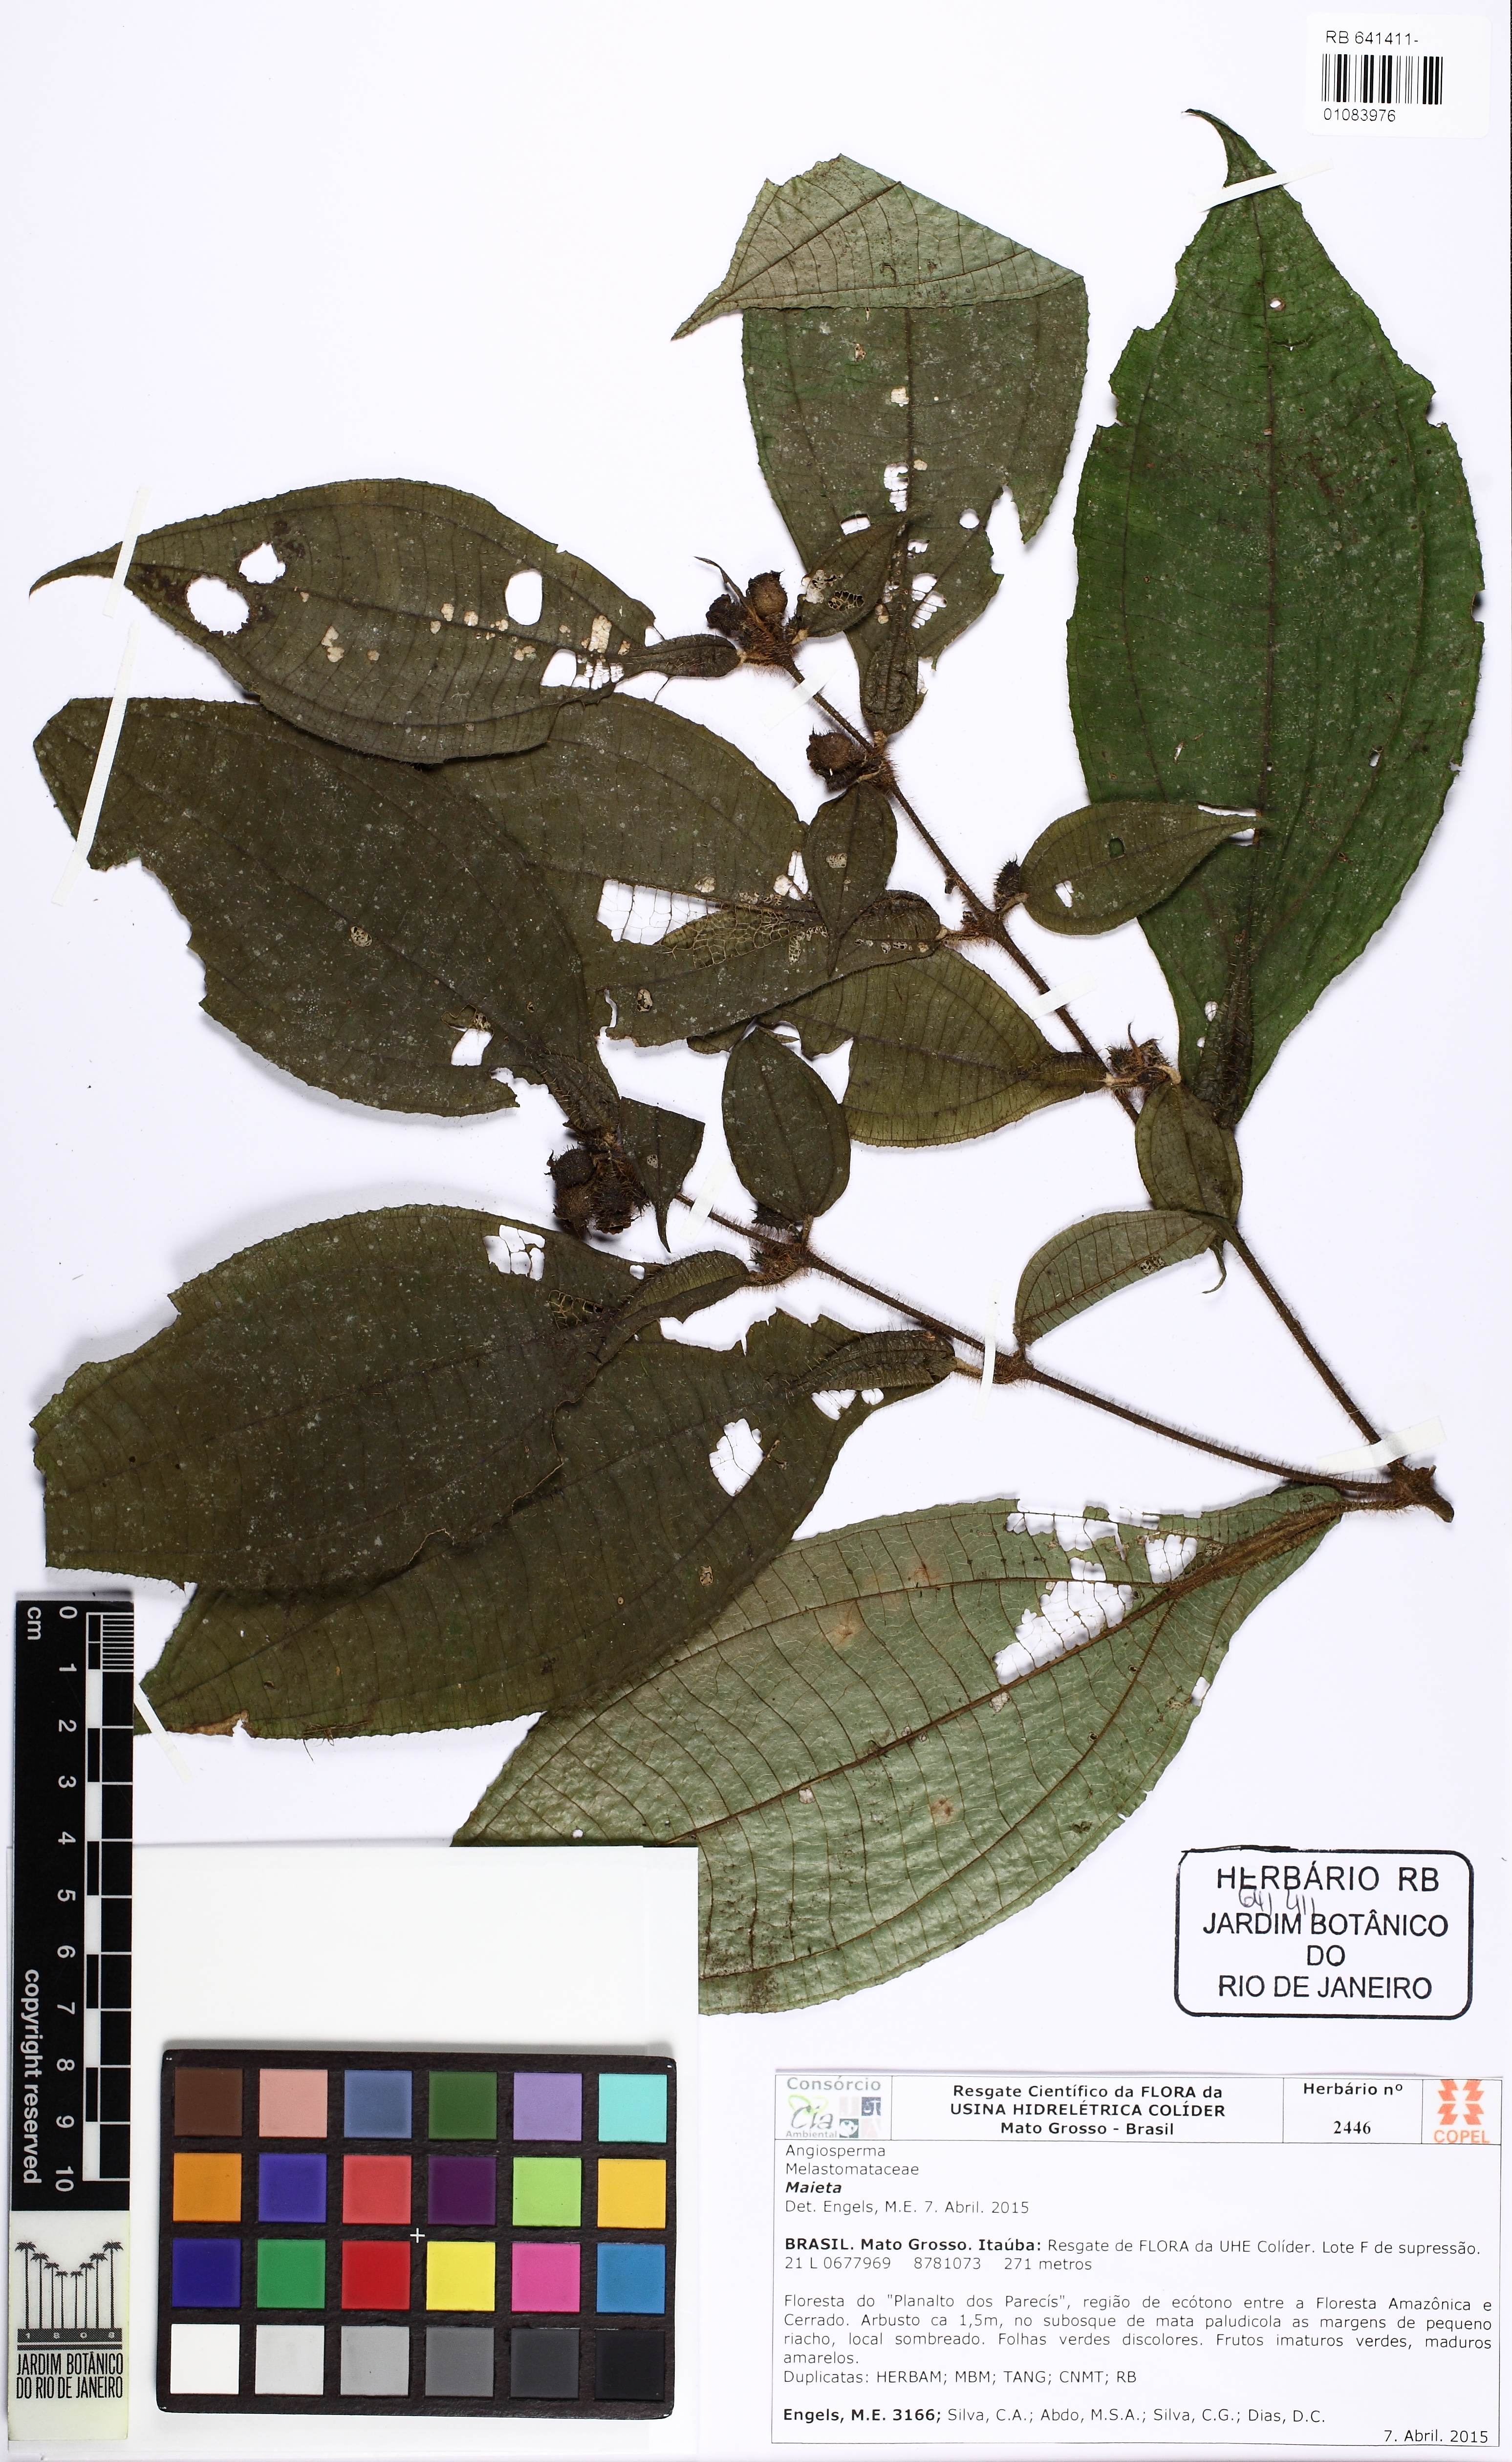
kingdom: Plantae
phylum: Tracheophyta
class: Magnoliopsida
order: Myrtales
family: Melastomataceae
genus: Miconia
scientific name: Miconia alternidomatia
